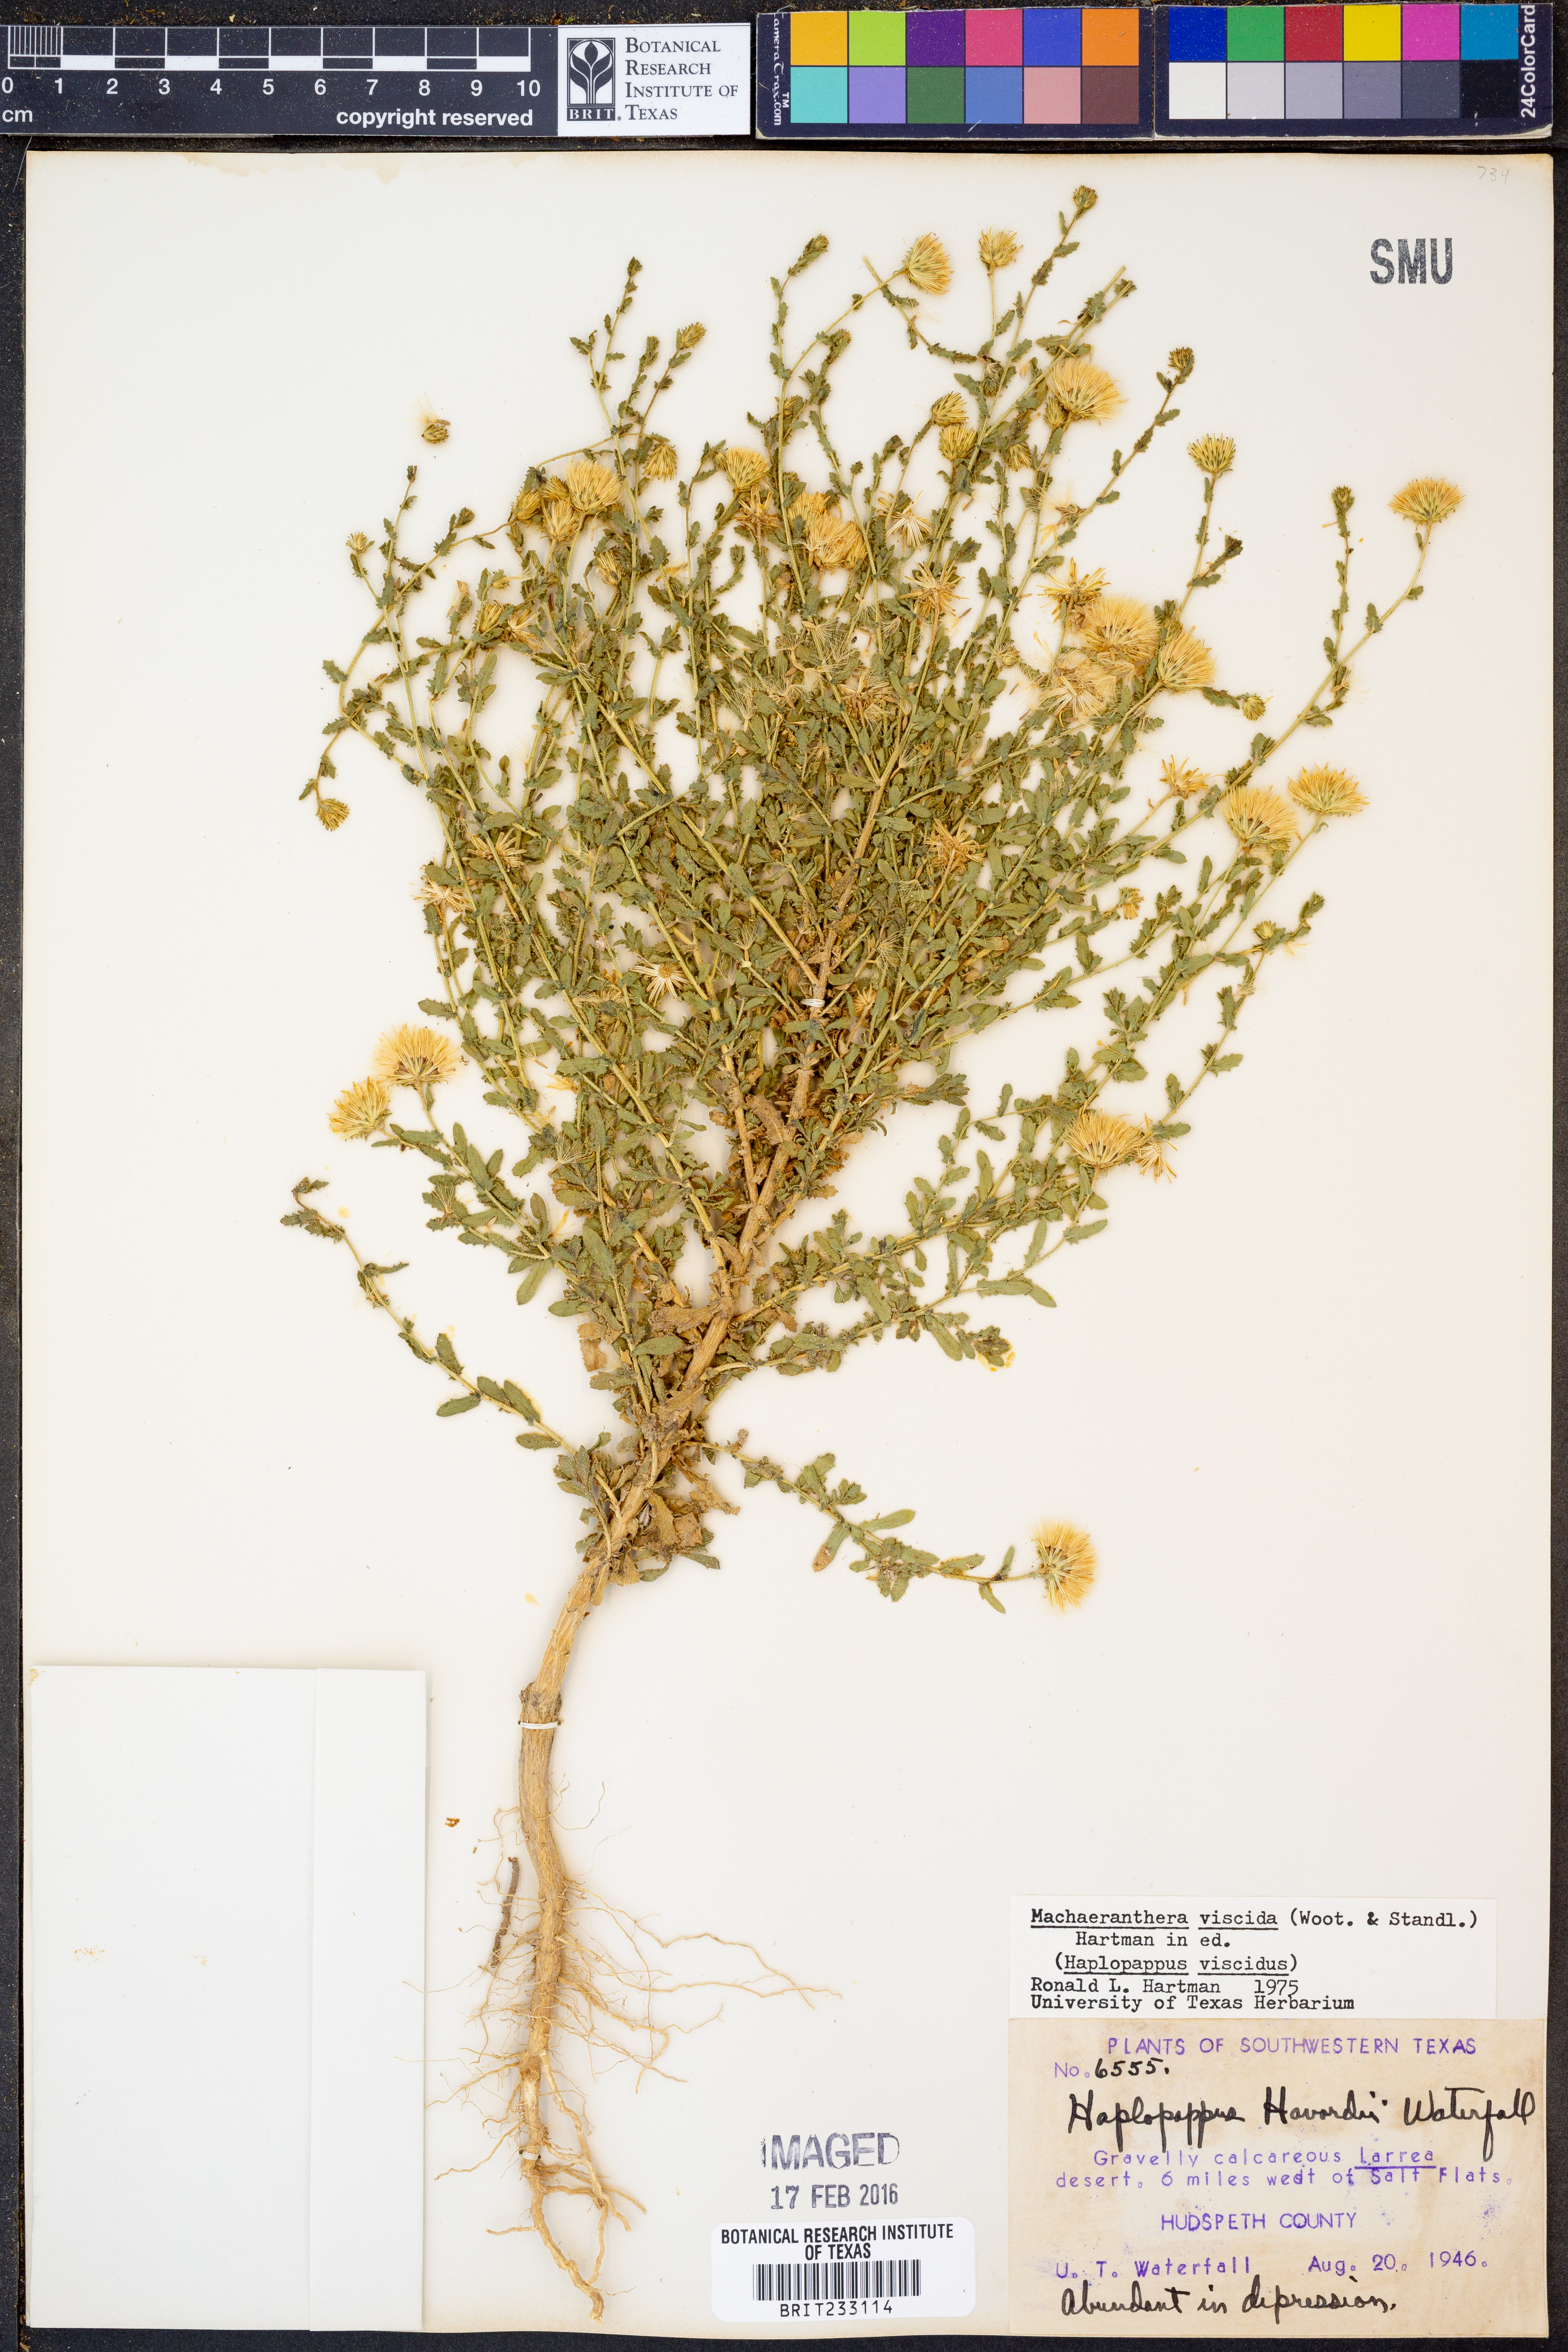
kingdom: Plantae
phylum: Tracheophyta
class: Magnoliopsida
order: Asterales
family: Asteraceae
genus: Xanthisma
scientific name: Xanthisma viscidum
